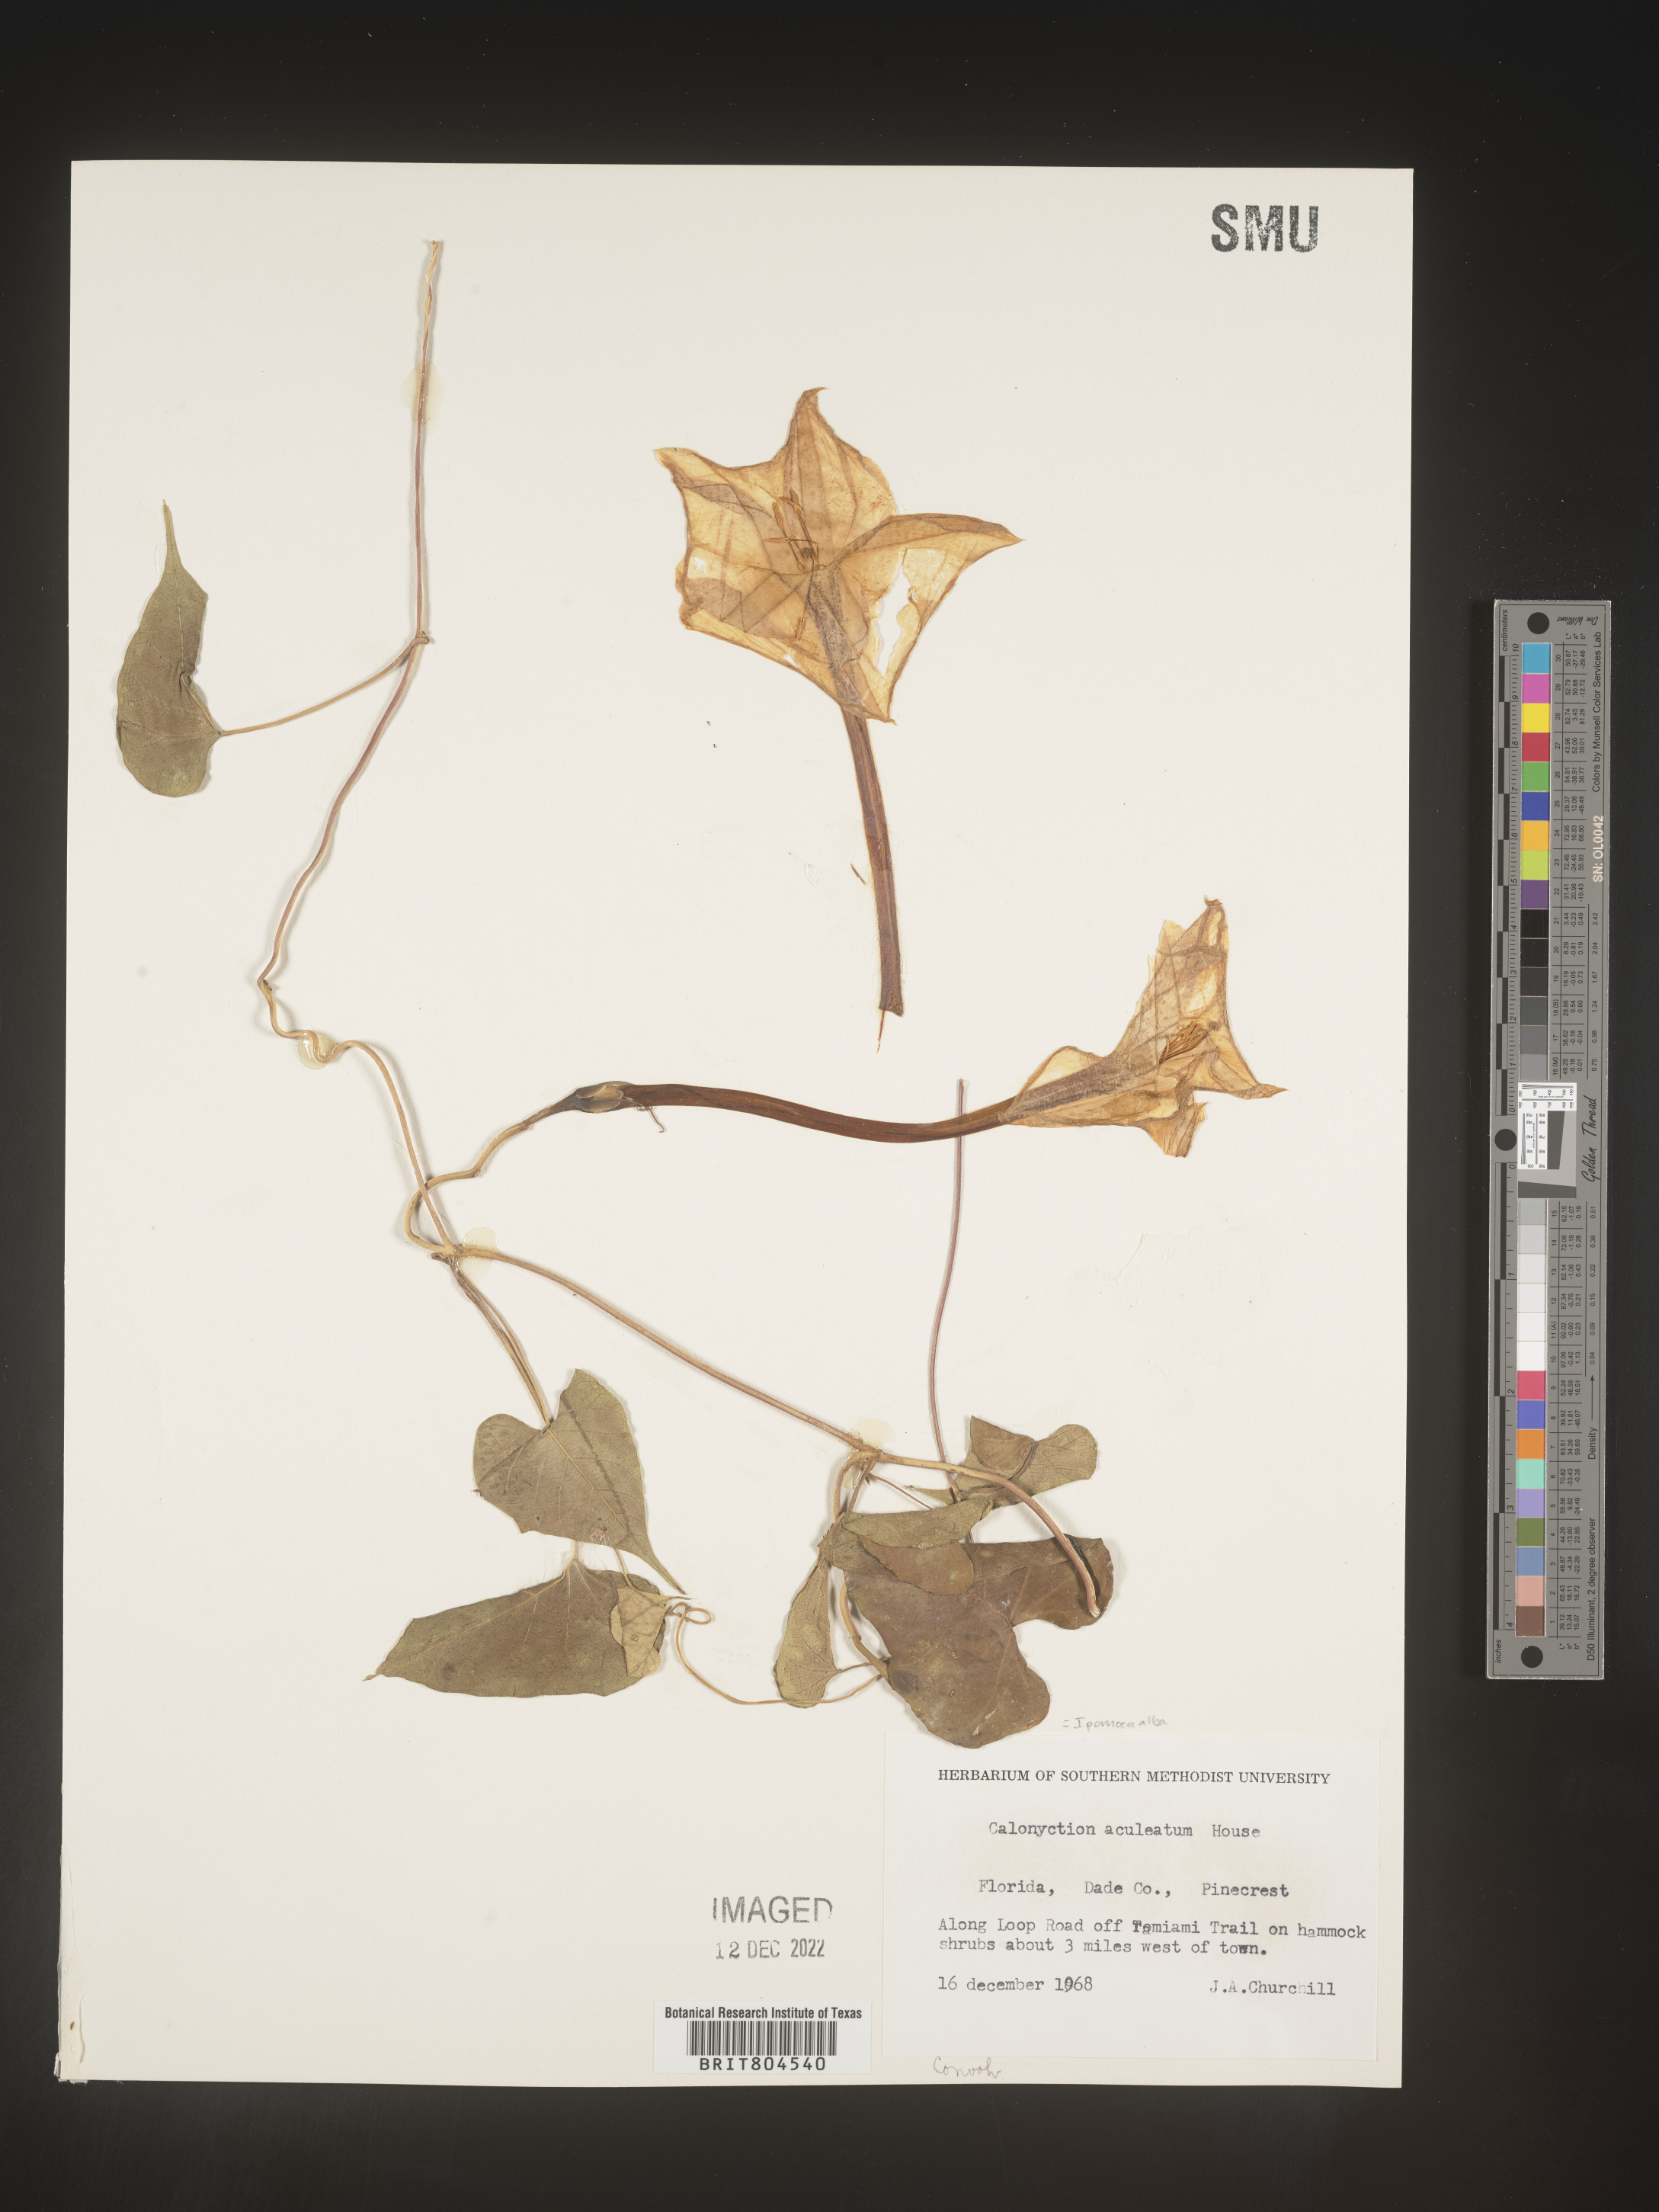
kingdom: Plantae
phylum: Tracheophyta
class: Magnoliopsida
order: Solanales
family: Convolvulaceae
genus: Ipomoea
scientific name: Ipomoea alba
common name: Moonflower
